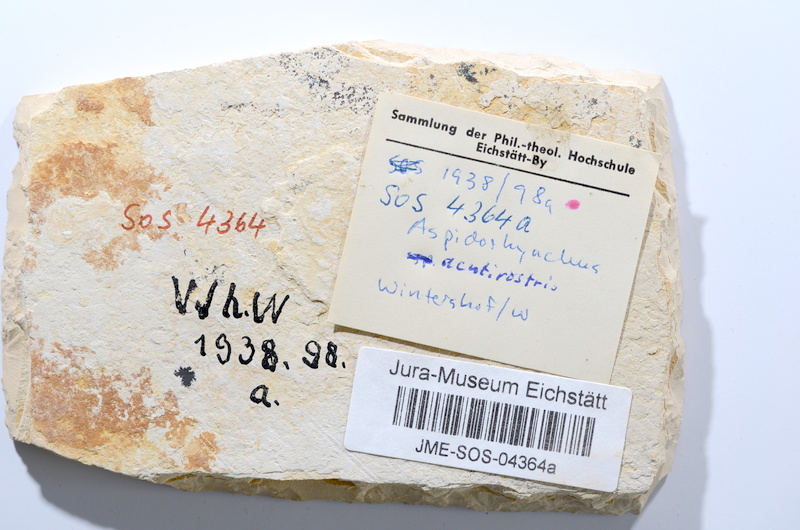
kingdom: Animalia
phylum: Chordata
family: Aspidorhynchidae
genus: Aspidorhynchus
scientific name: Aspidorhynchus acutirostris
